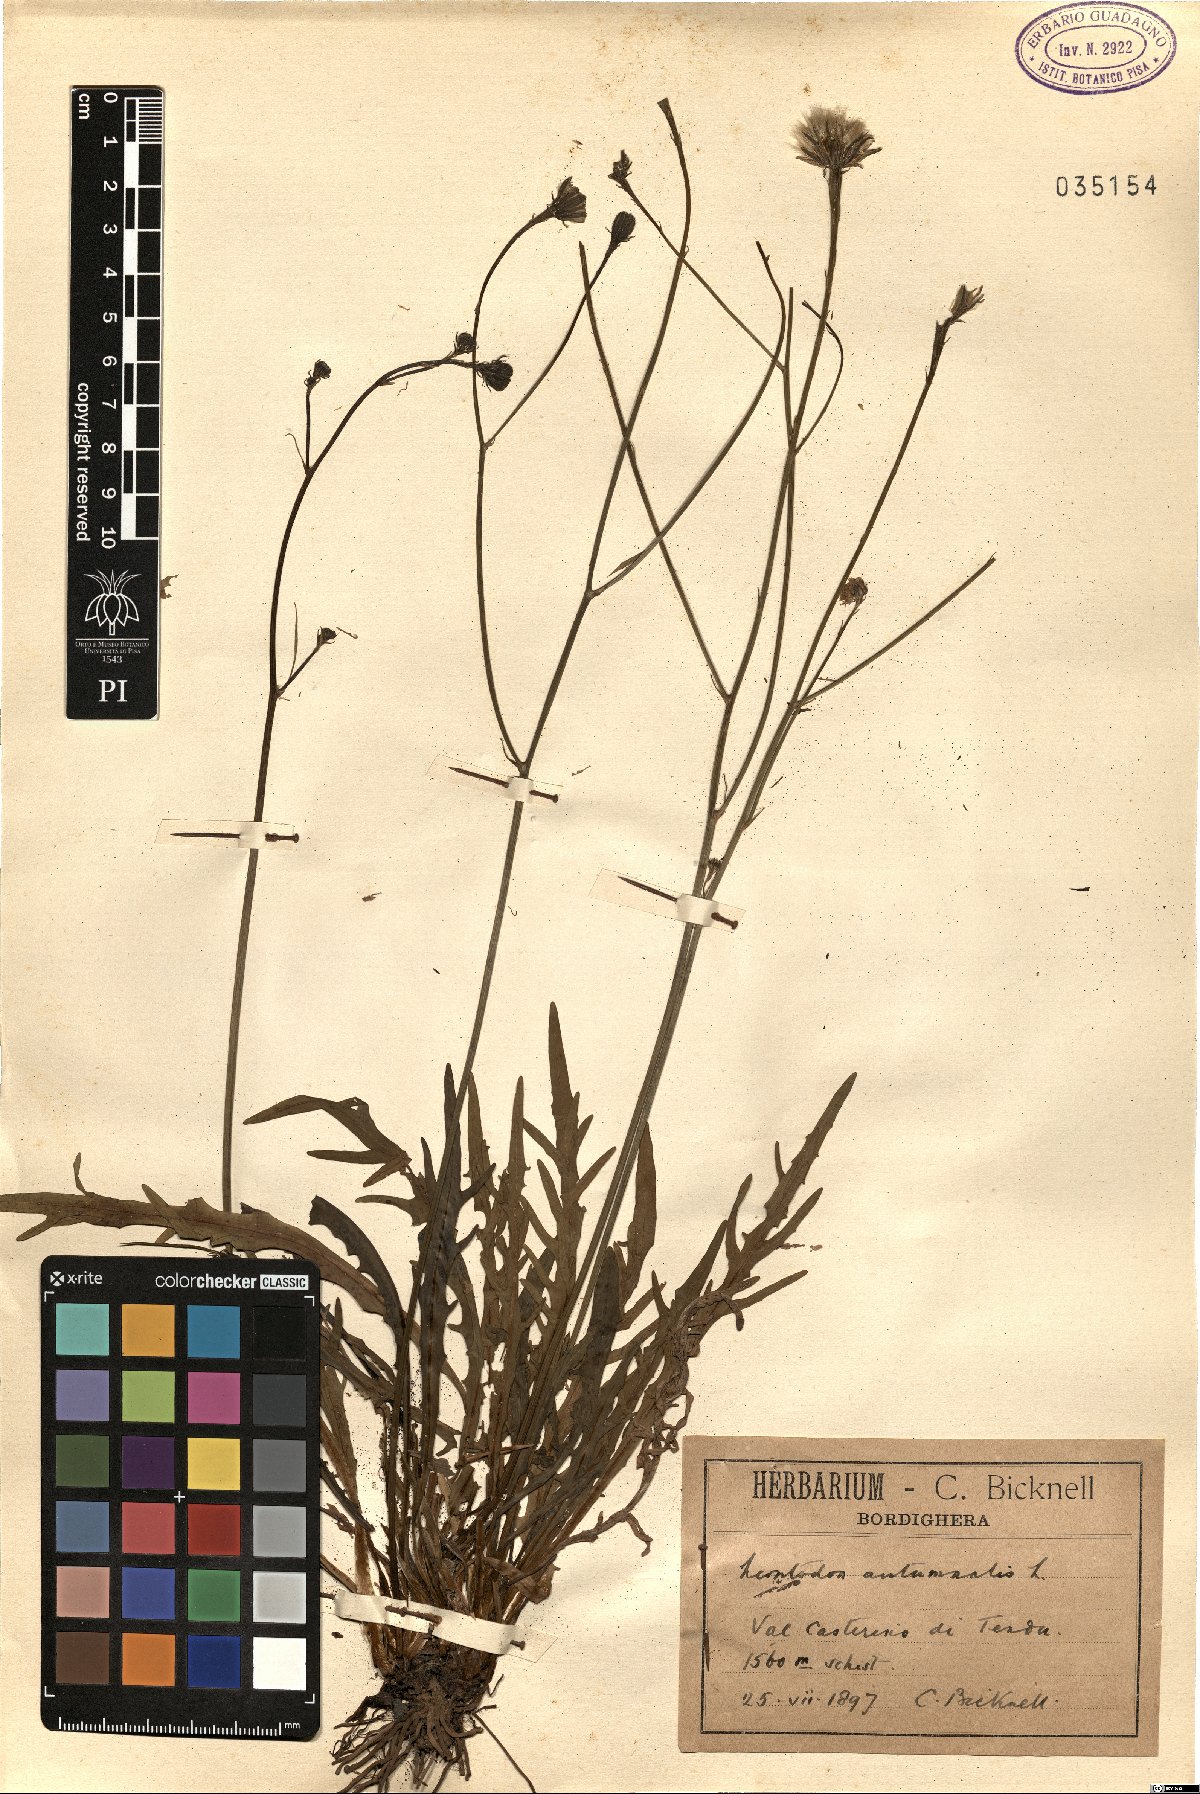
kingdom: Plantae
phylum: Tracheophyta
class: Magnoliopsida
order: Asterales
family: Asteraceae
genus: Scorzoneroides
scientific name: Scorzoneroides autumnalis
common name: Autumn hawkbit
